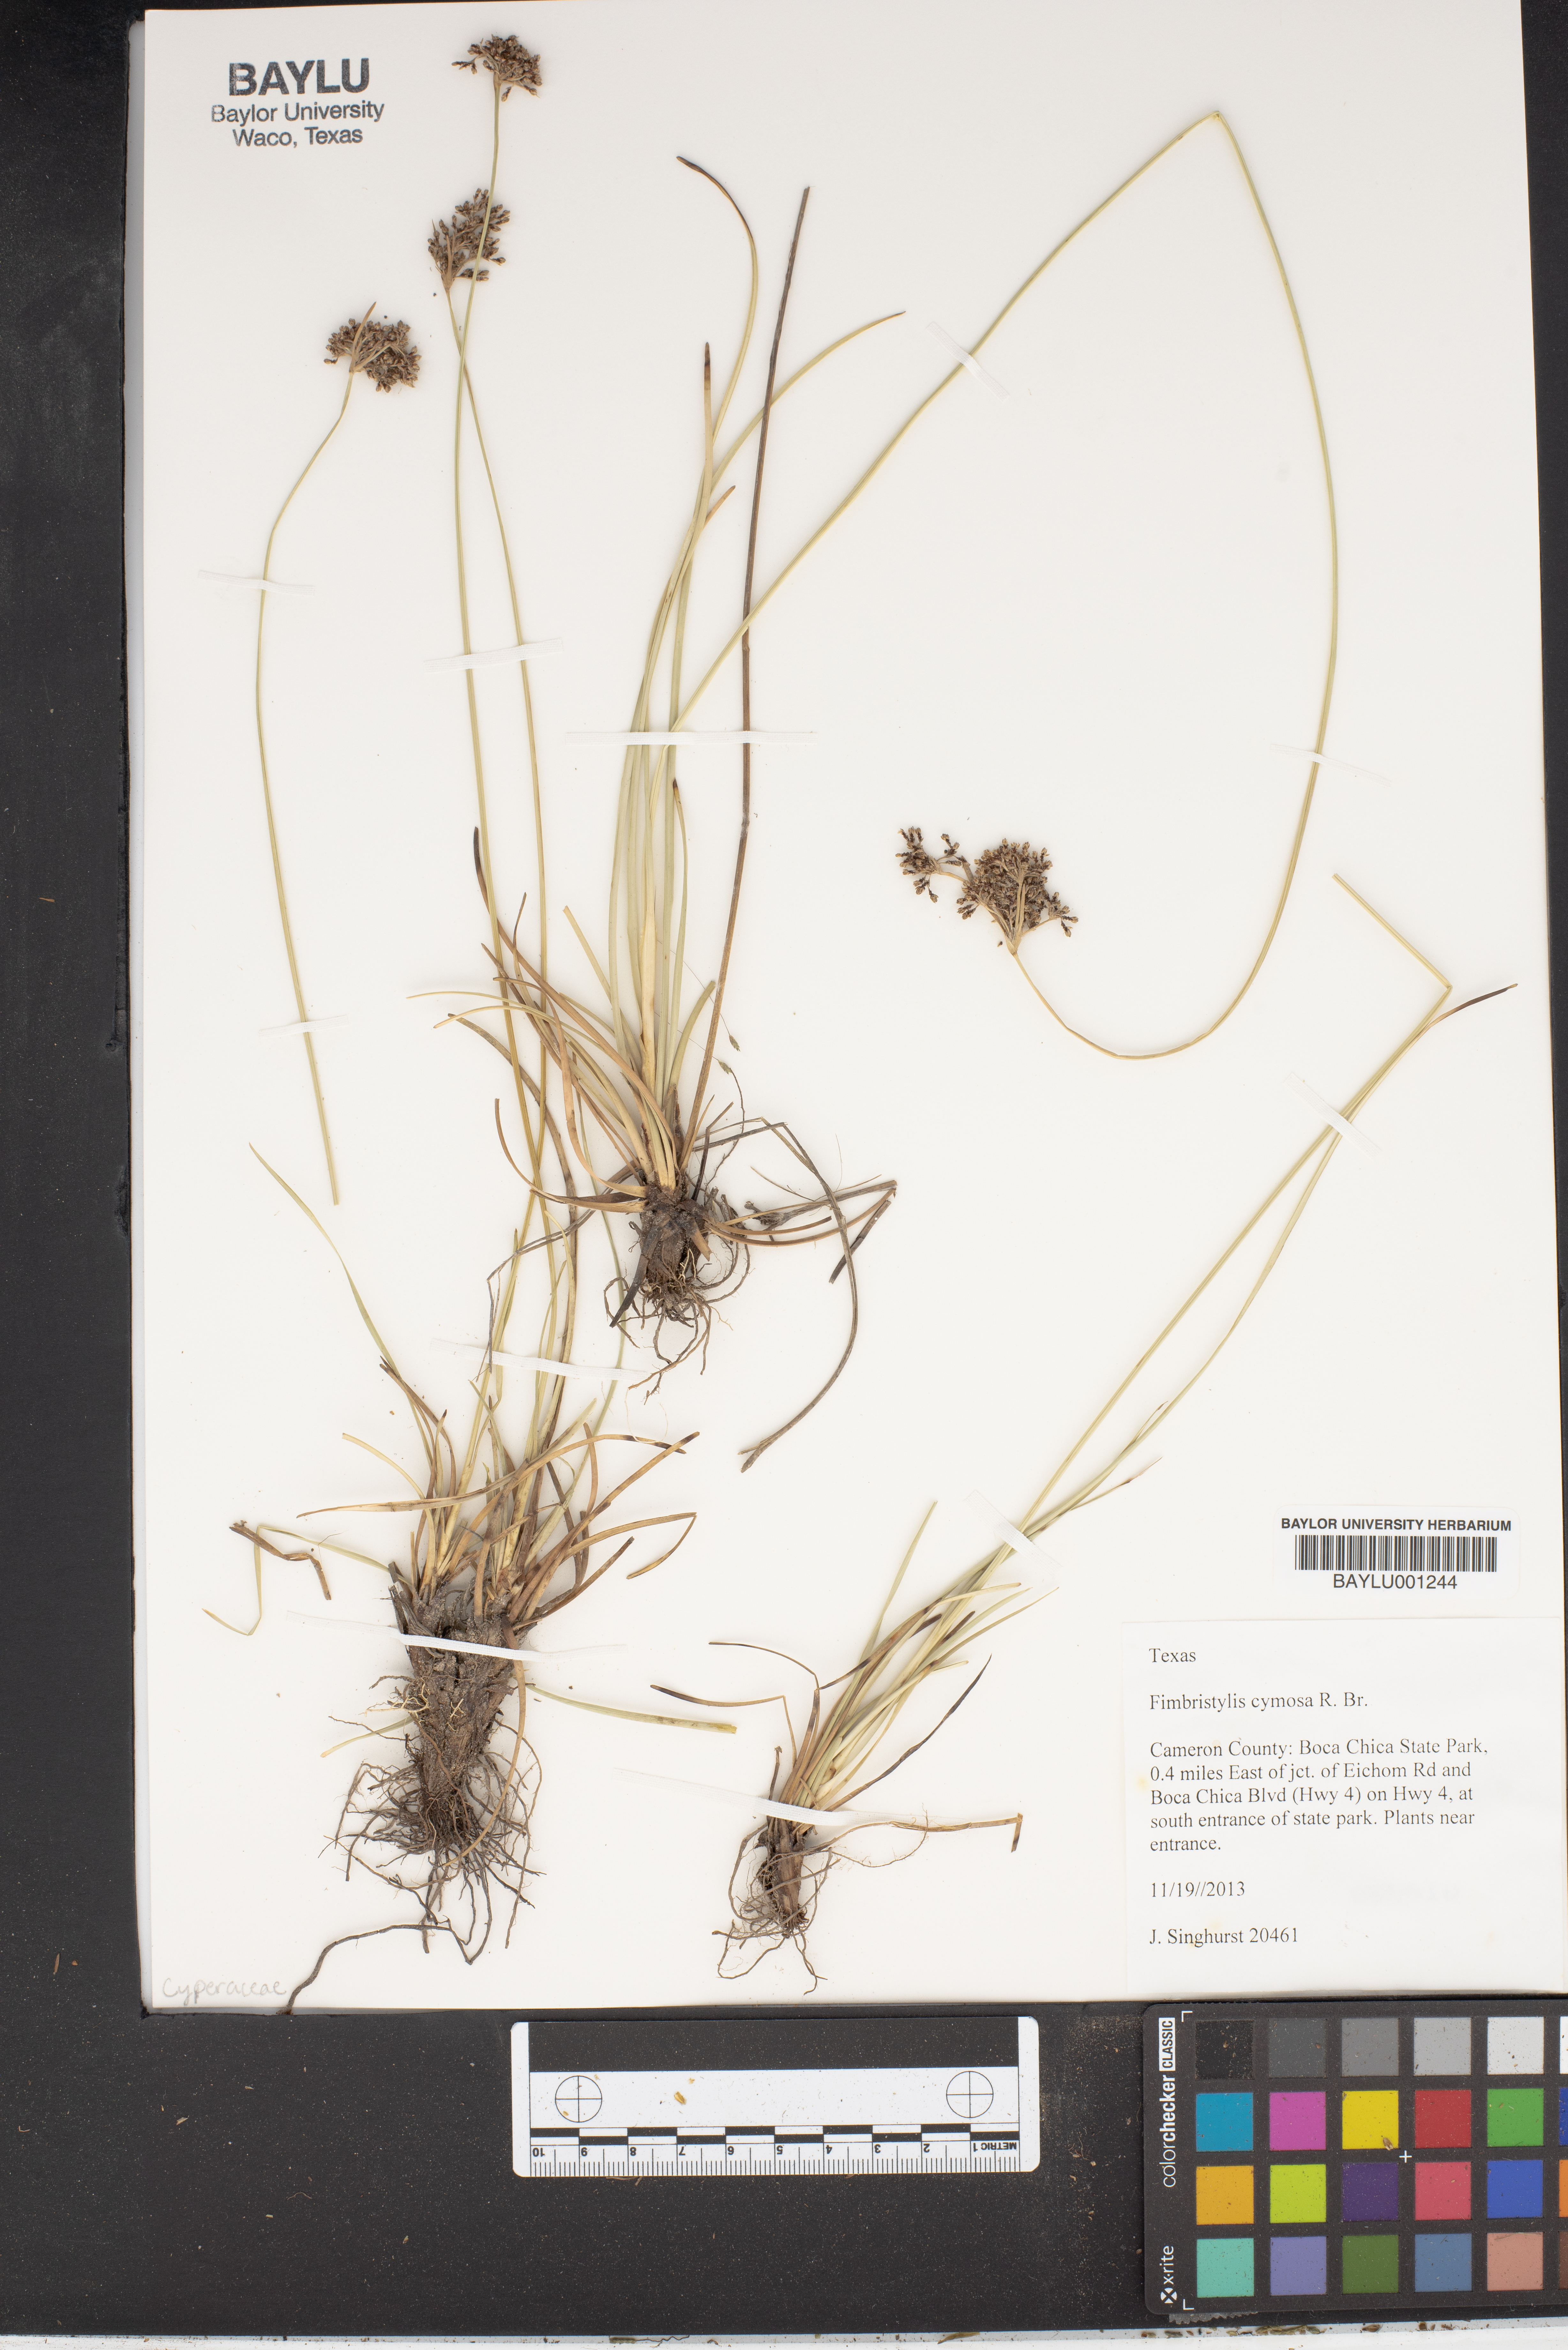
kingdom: Plantae
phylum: Tracheophyta
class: Liliopsida
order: Poales
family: Cyperaceae
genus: Fimbristylis
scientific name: Fimbristylis cymosa
